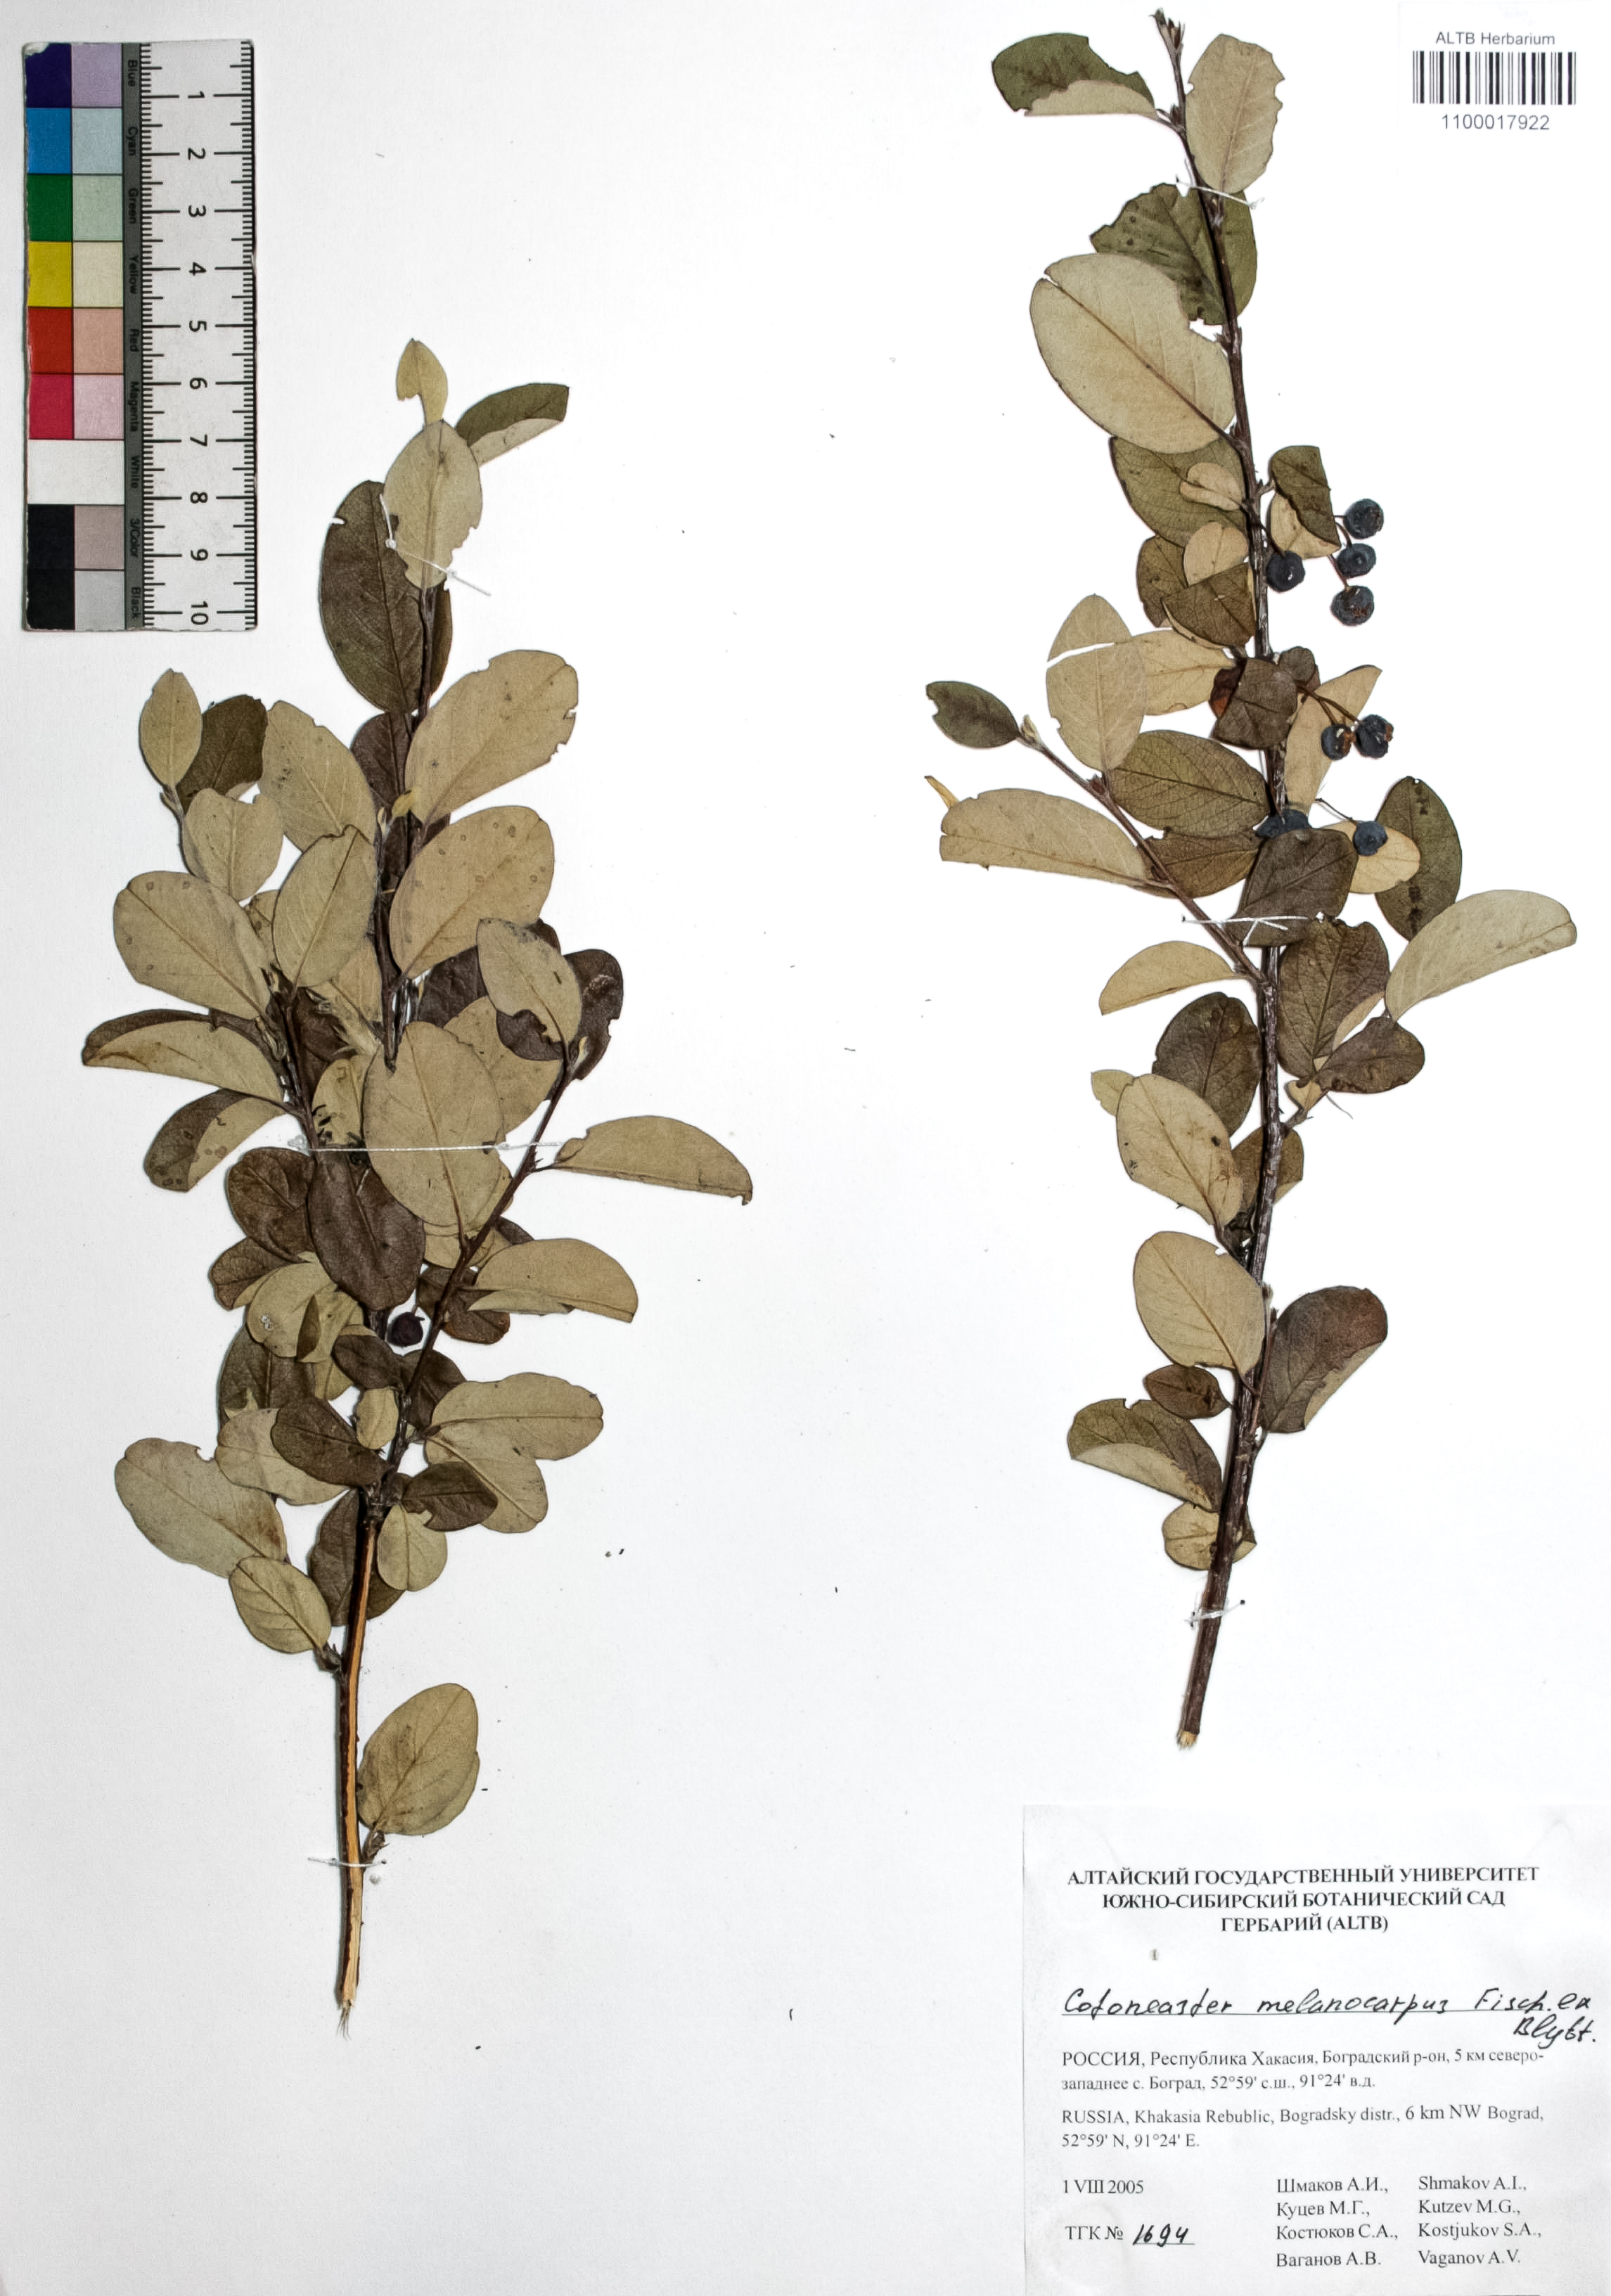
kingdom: Plantae
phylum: Tracheophyta
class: Magnoliopsida
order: Rosales
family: Rosaceae
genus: Cotoneaster
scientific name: Cotoneaster niger
